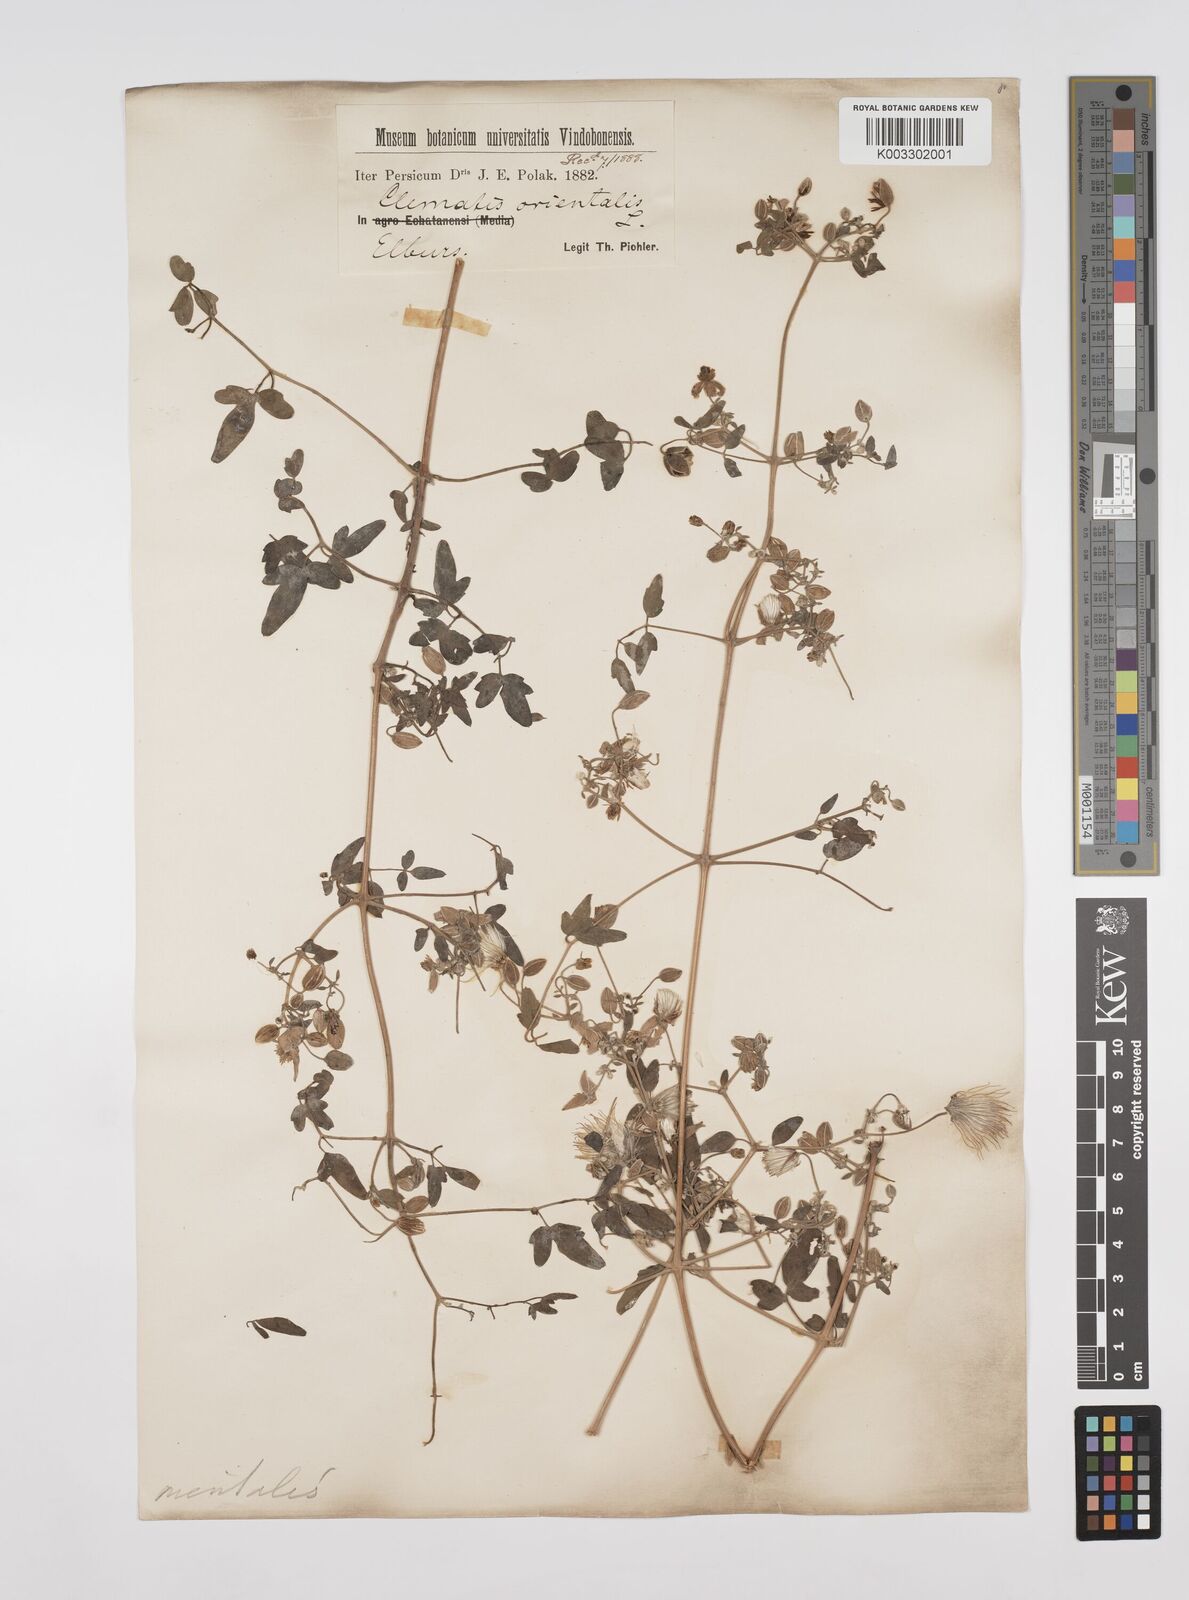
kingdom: Plantae
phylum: Tracheophyta
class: Magnoliopsida
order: Ranunculales
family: Ranunculaceae
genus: Clematis
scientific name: Clematis orientalis
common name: Oriental virgin's-bower
